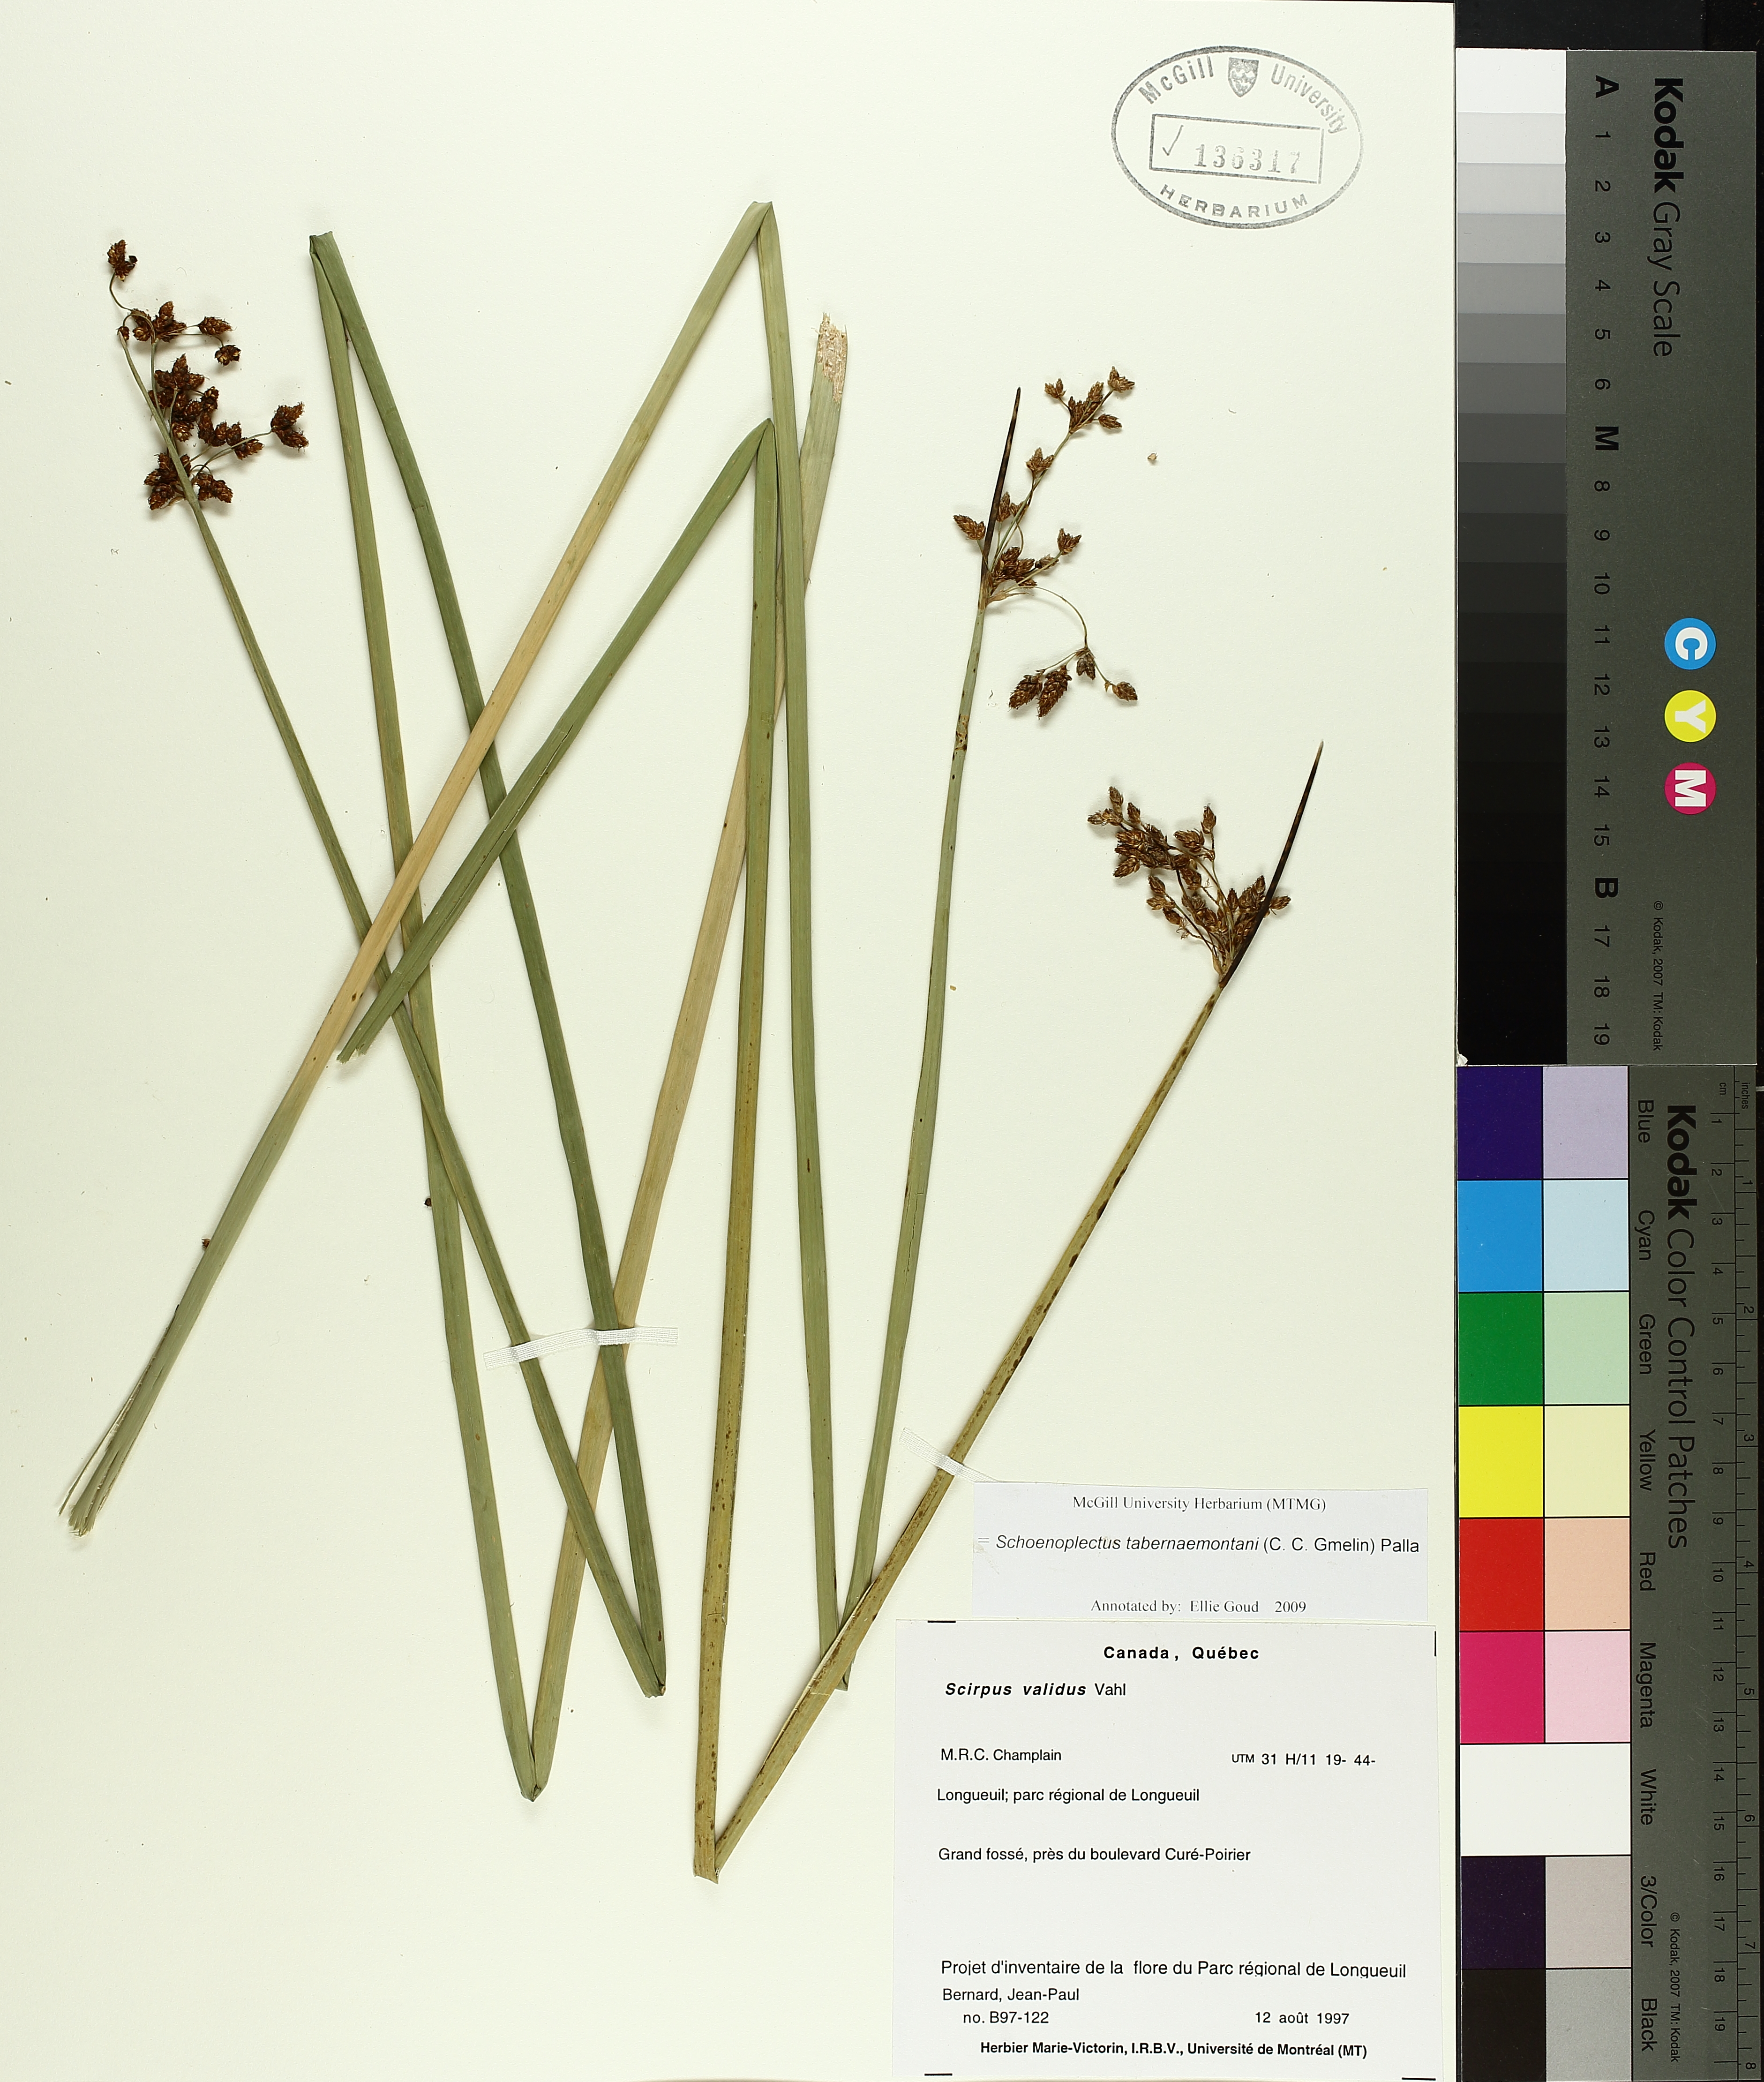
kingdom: Plantae
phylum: Tracheophyta
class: Liliopsida
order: Poales
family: Cyperaceae
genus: Schoenoplectus
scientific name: Schoenoplectus tabernaemontani
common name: Grey club-rush
